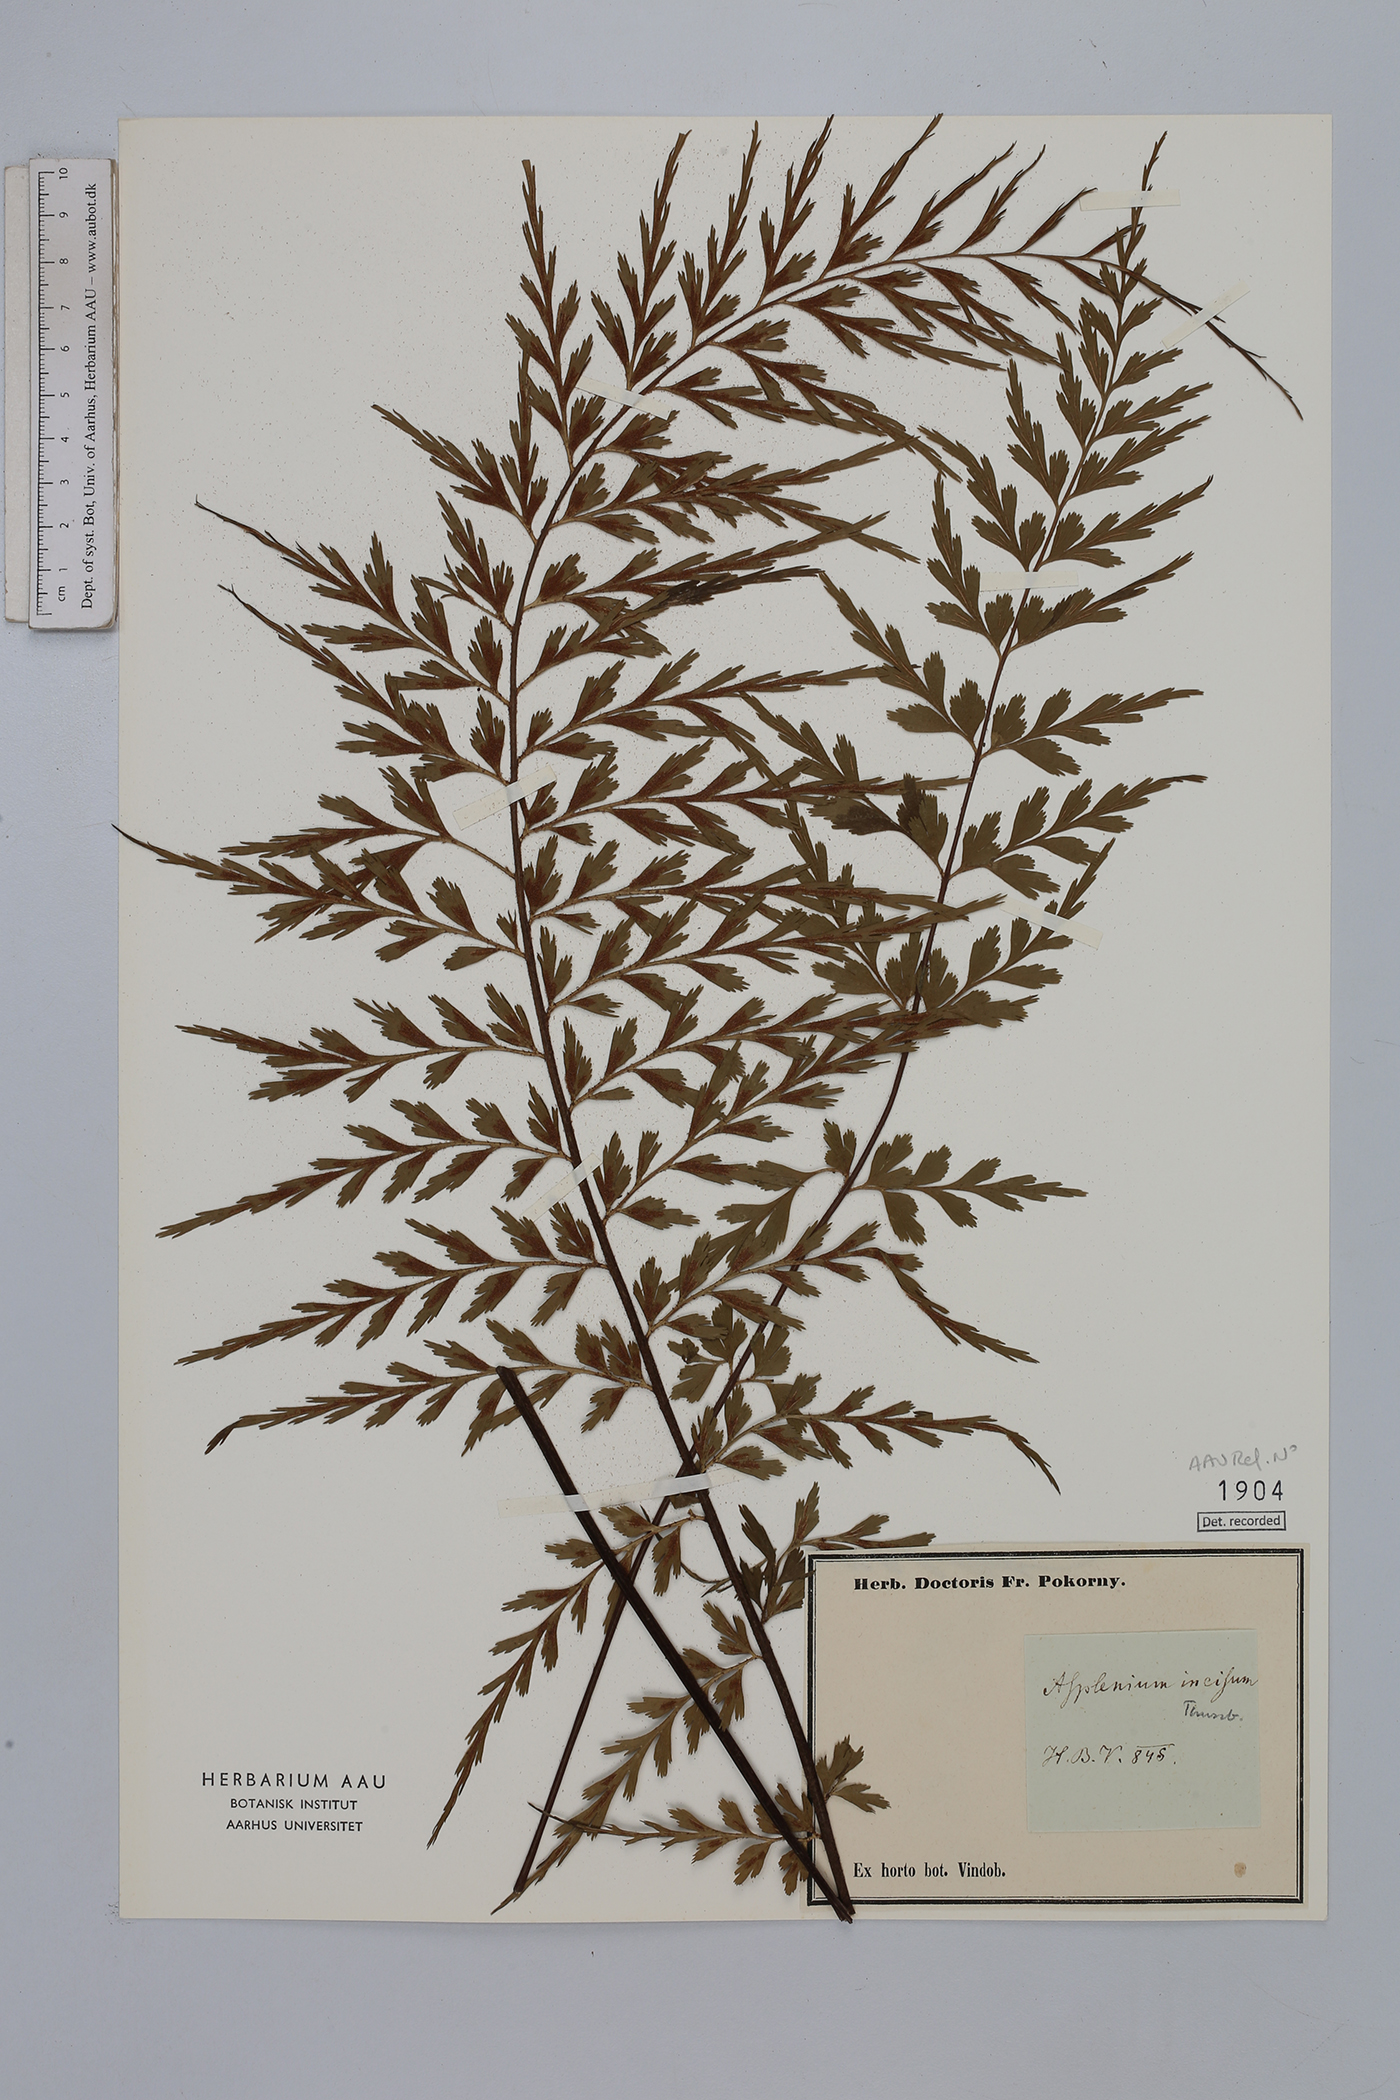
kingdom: Plantae
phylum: Tracheophyta
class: Polypodiopsida
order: Polypodiales
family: Aspleniaceae
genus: Asplenium
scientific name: Asplenium incisum
